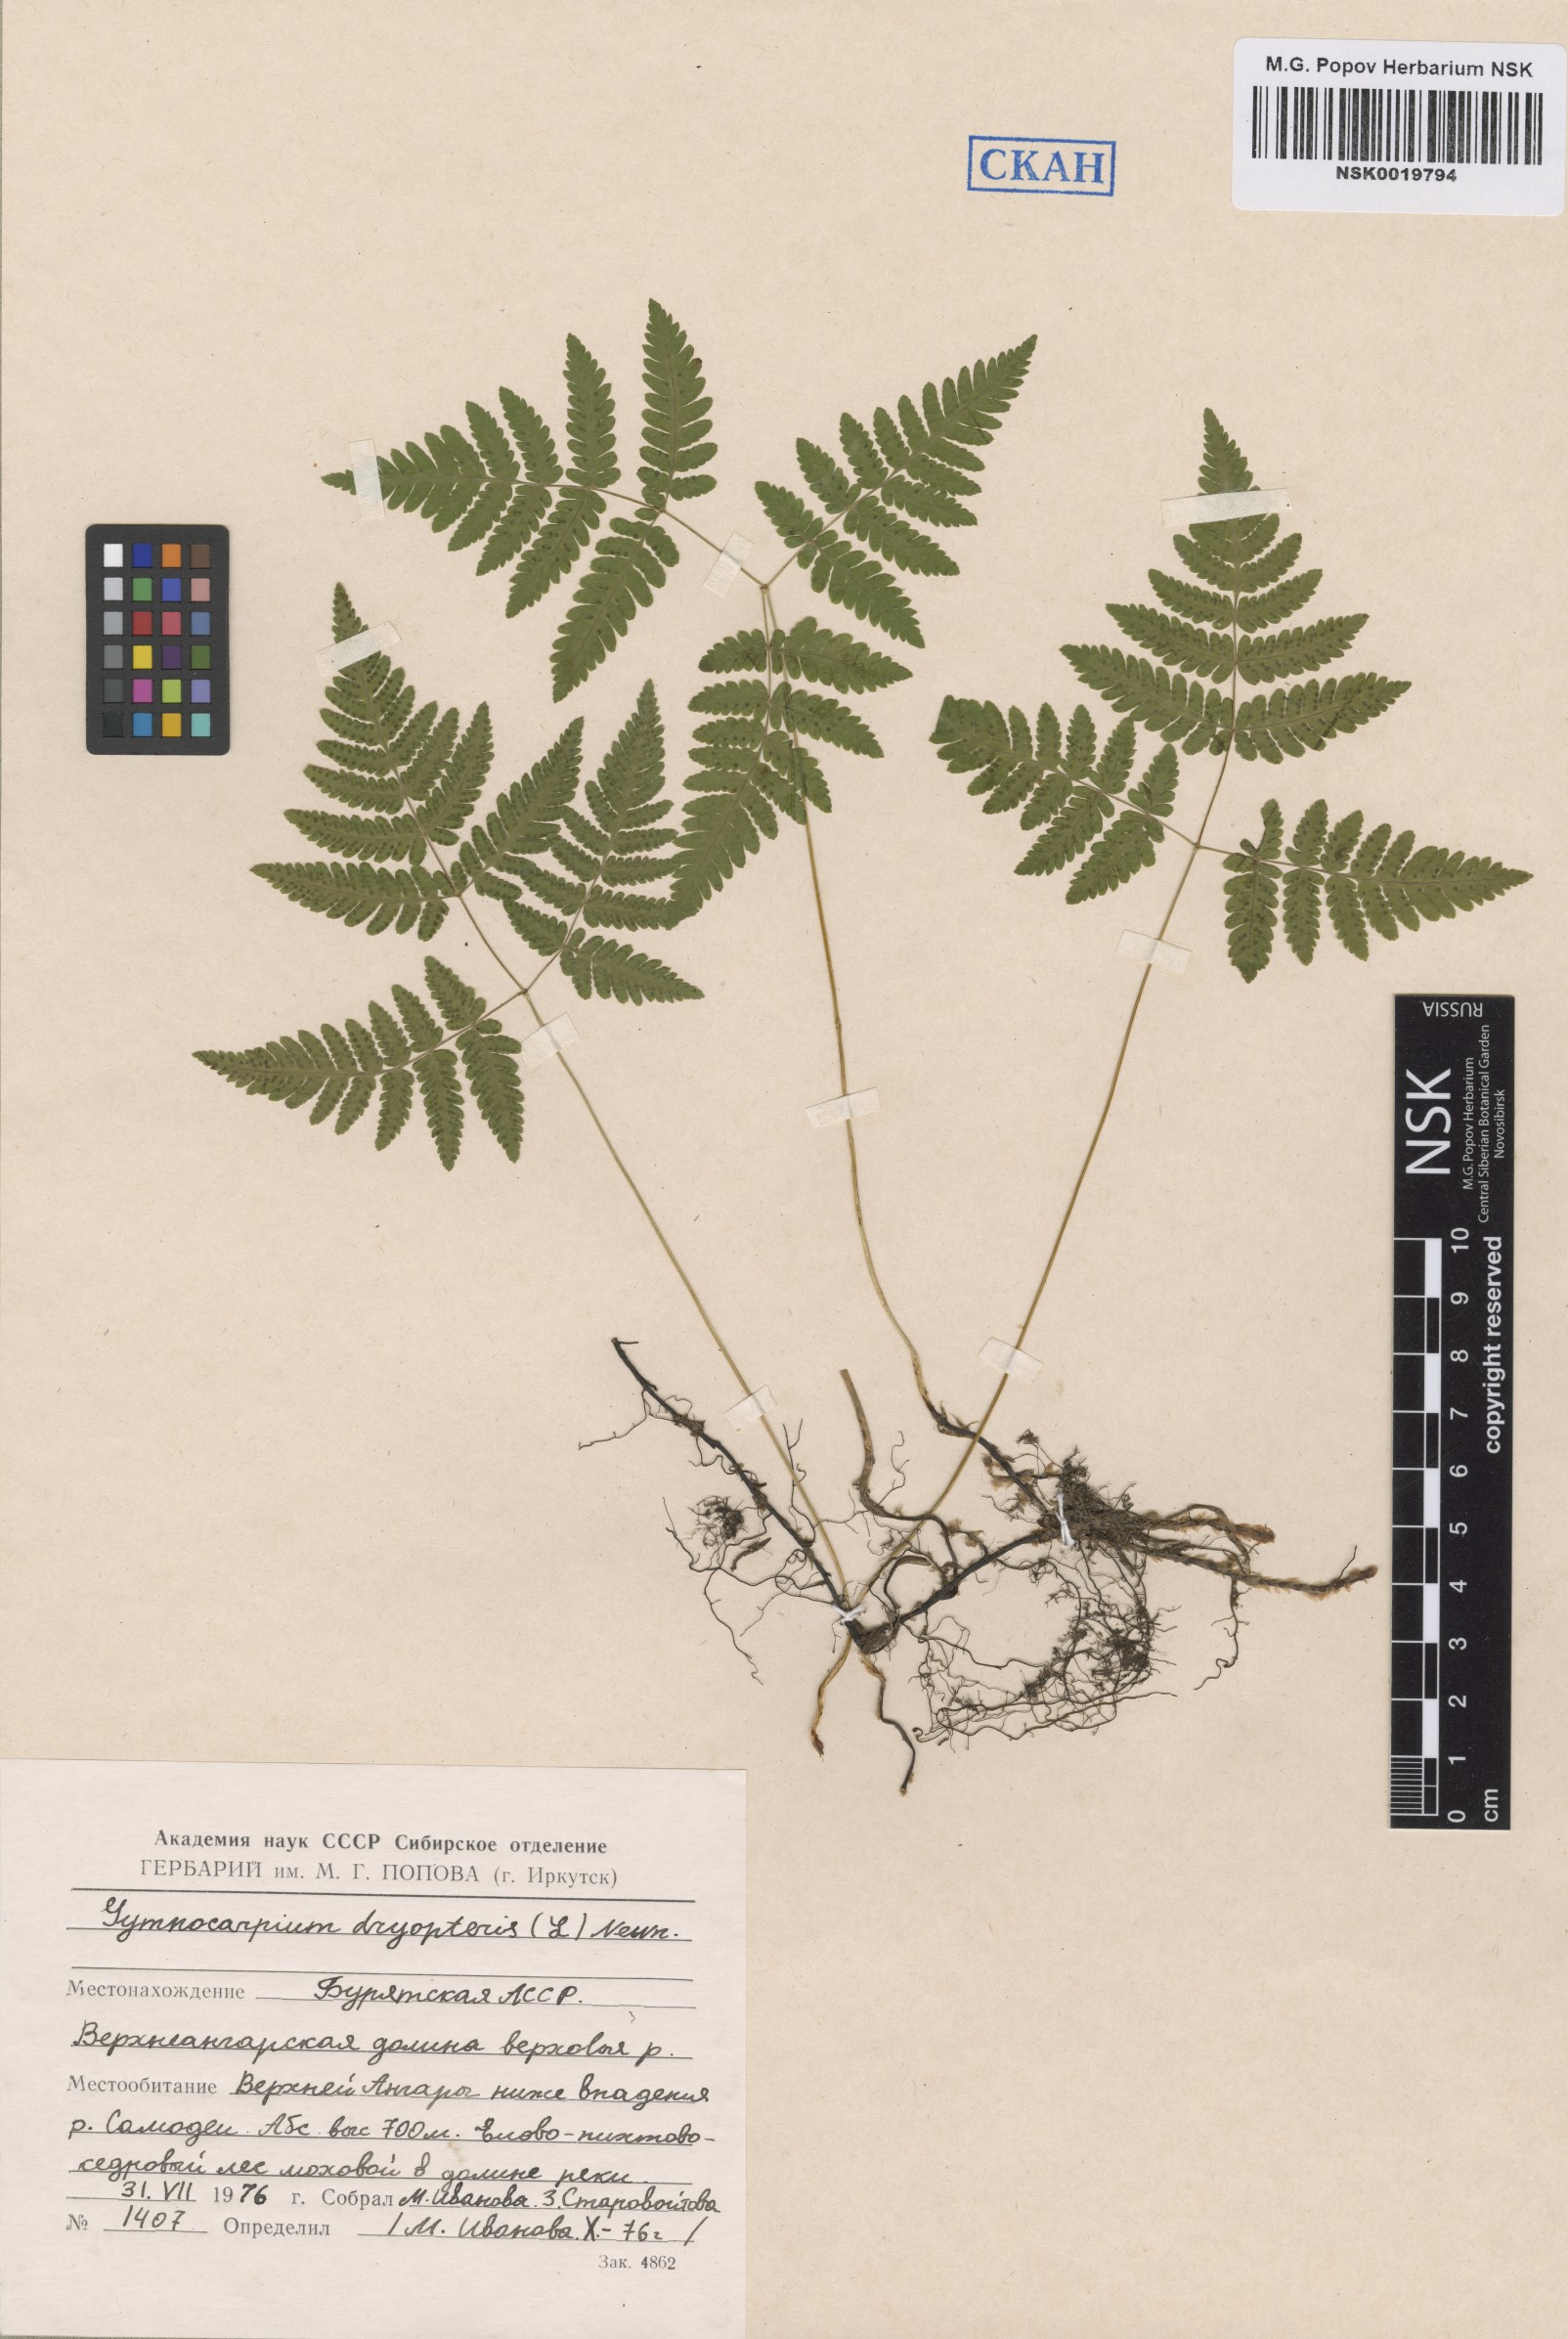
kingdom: Plantae
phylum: Tracheophyta
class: Polypodiopsida
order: Polypodiales
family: Cystopteridaceae
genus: Gymnocarpium
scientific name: Gymnocarpium dryopteris
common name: Oak fern
